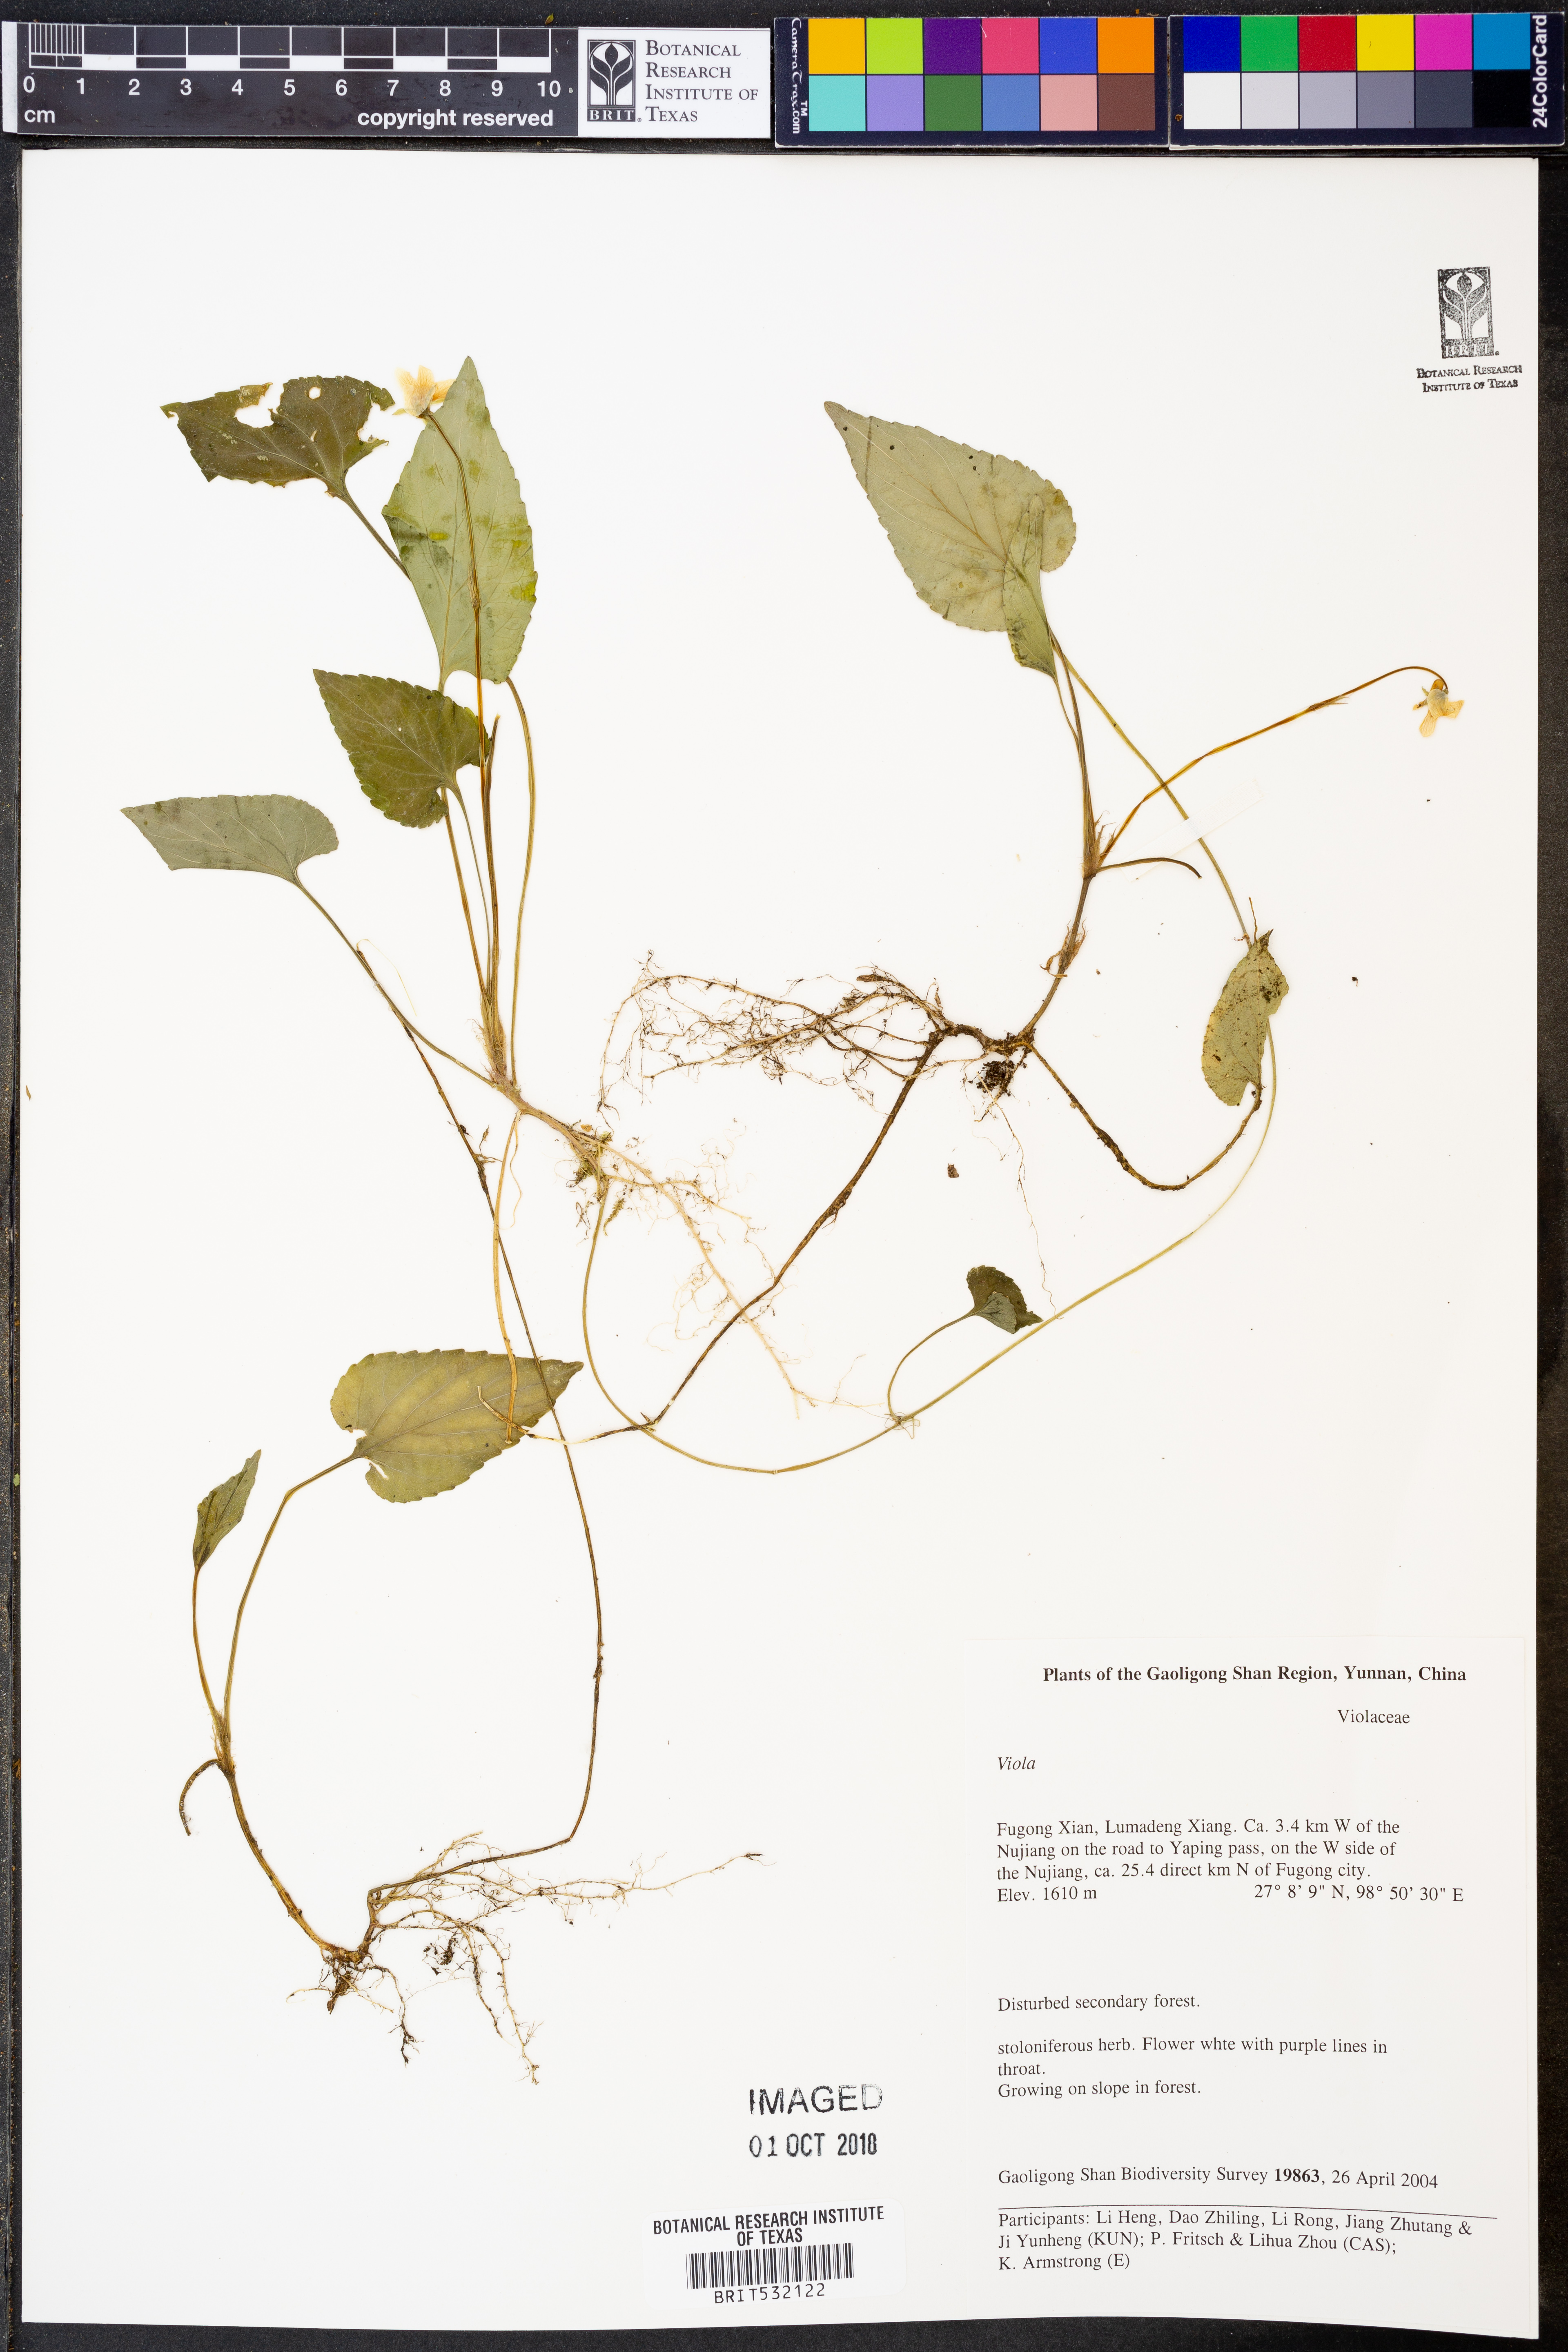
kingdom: Plantae
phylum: Tracheophyta
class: Magnoliopsida
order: Malpighiales
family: Violaceae
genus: Viola
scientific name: Viola
